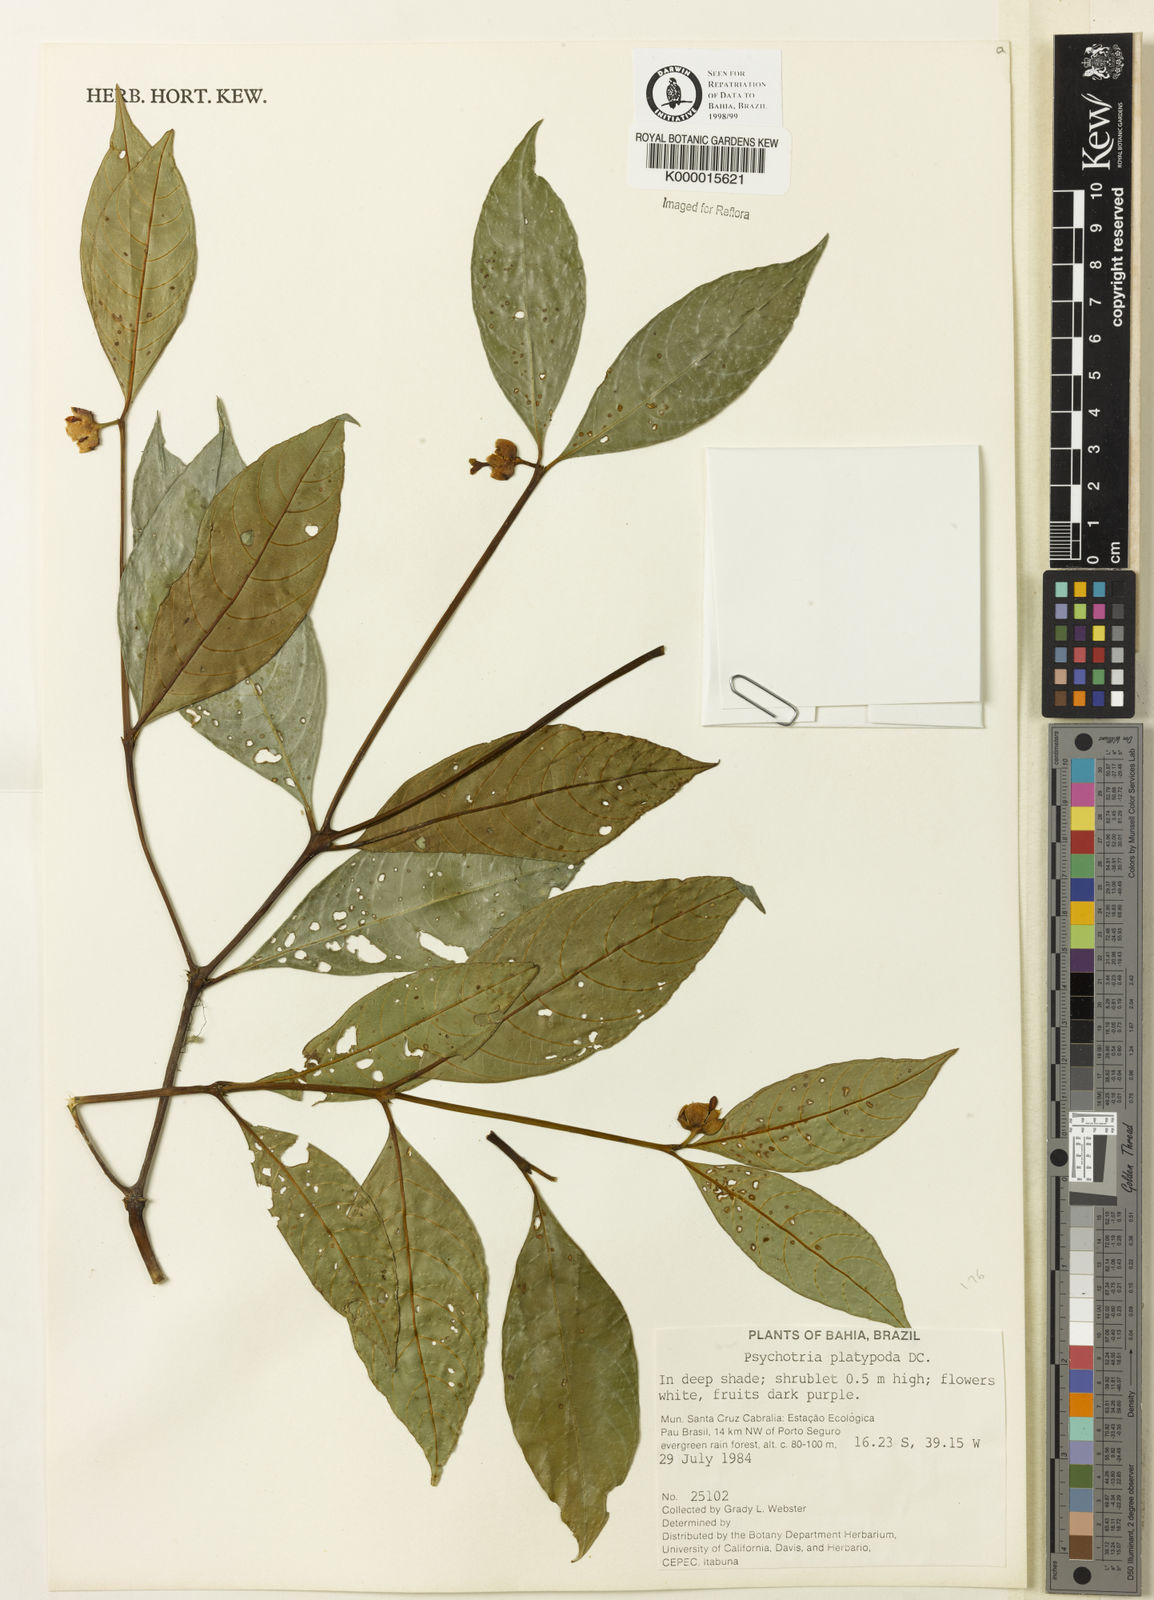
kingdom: Plantae
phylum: Tracheophyta
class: Magnoliopsida
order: Gentianales
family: Rubiaceae
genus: Palicourea
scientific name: Palicourea dichotoma
